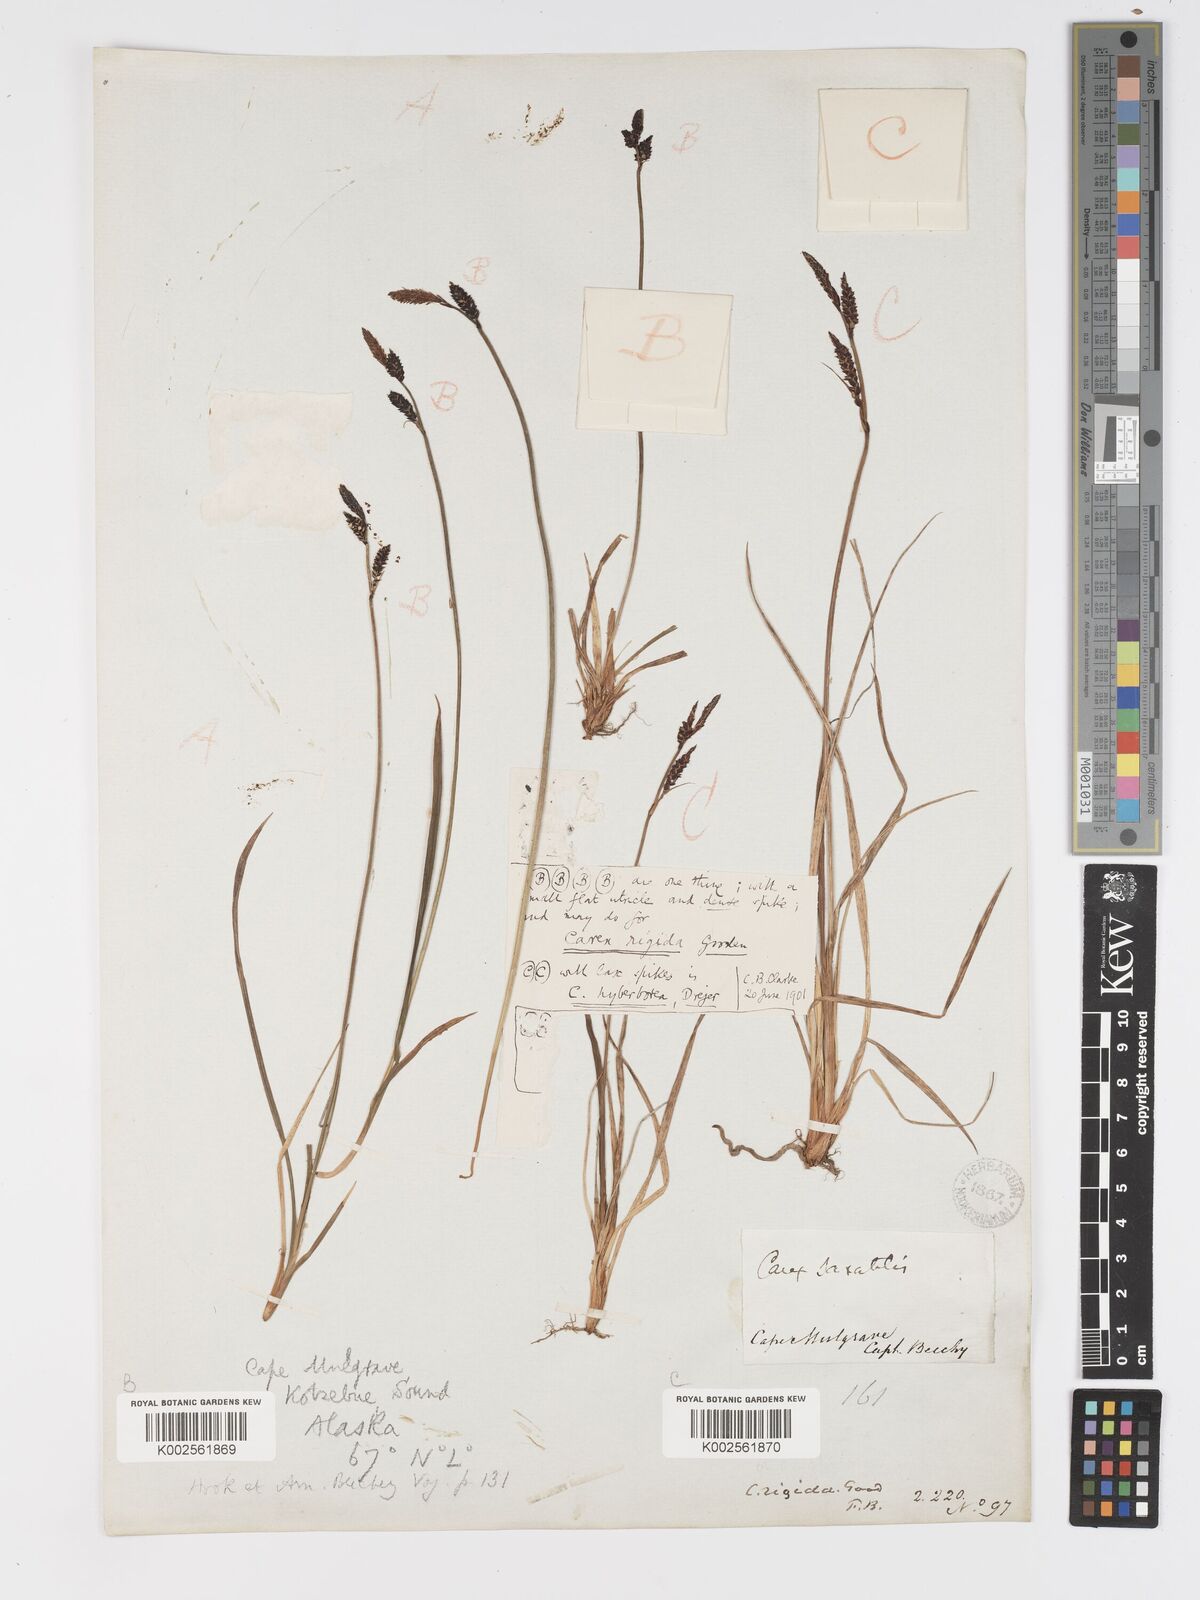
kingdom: Plantae
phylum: Tracheophyta
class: Liliopsida
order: Poales
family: Cyperaceae
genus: Carex
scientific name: Carex bigelowii
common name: Stiff sedge
